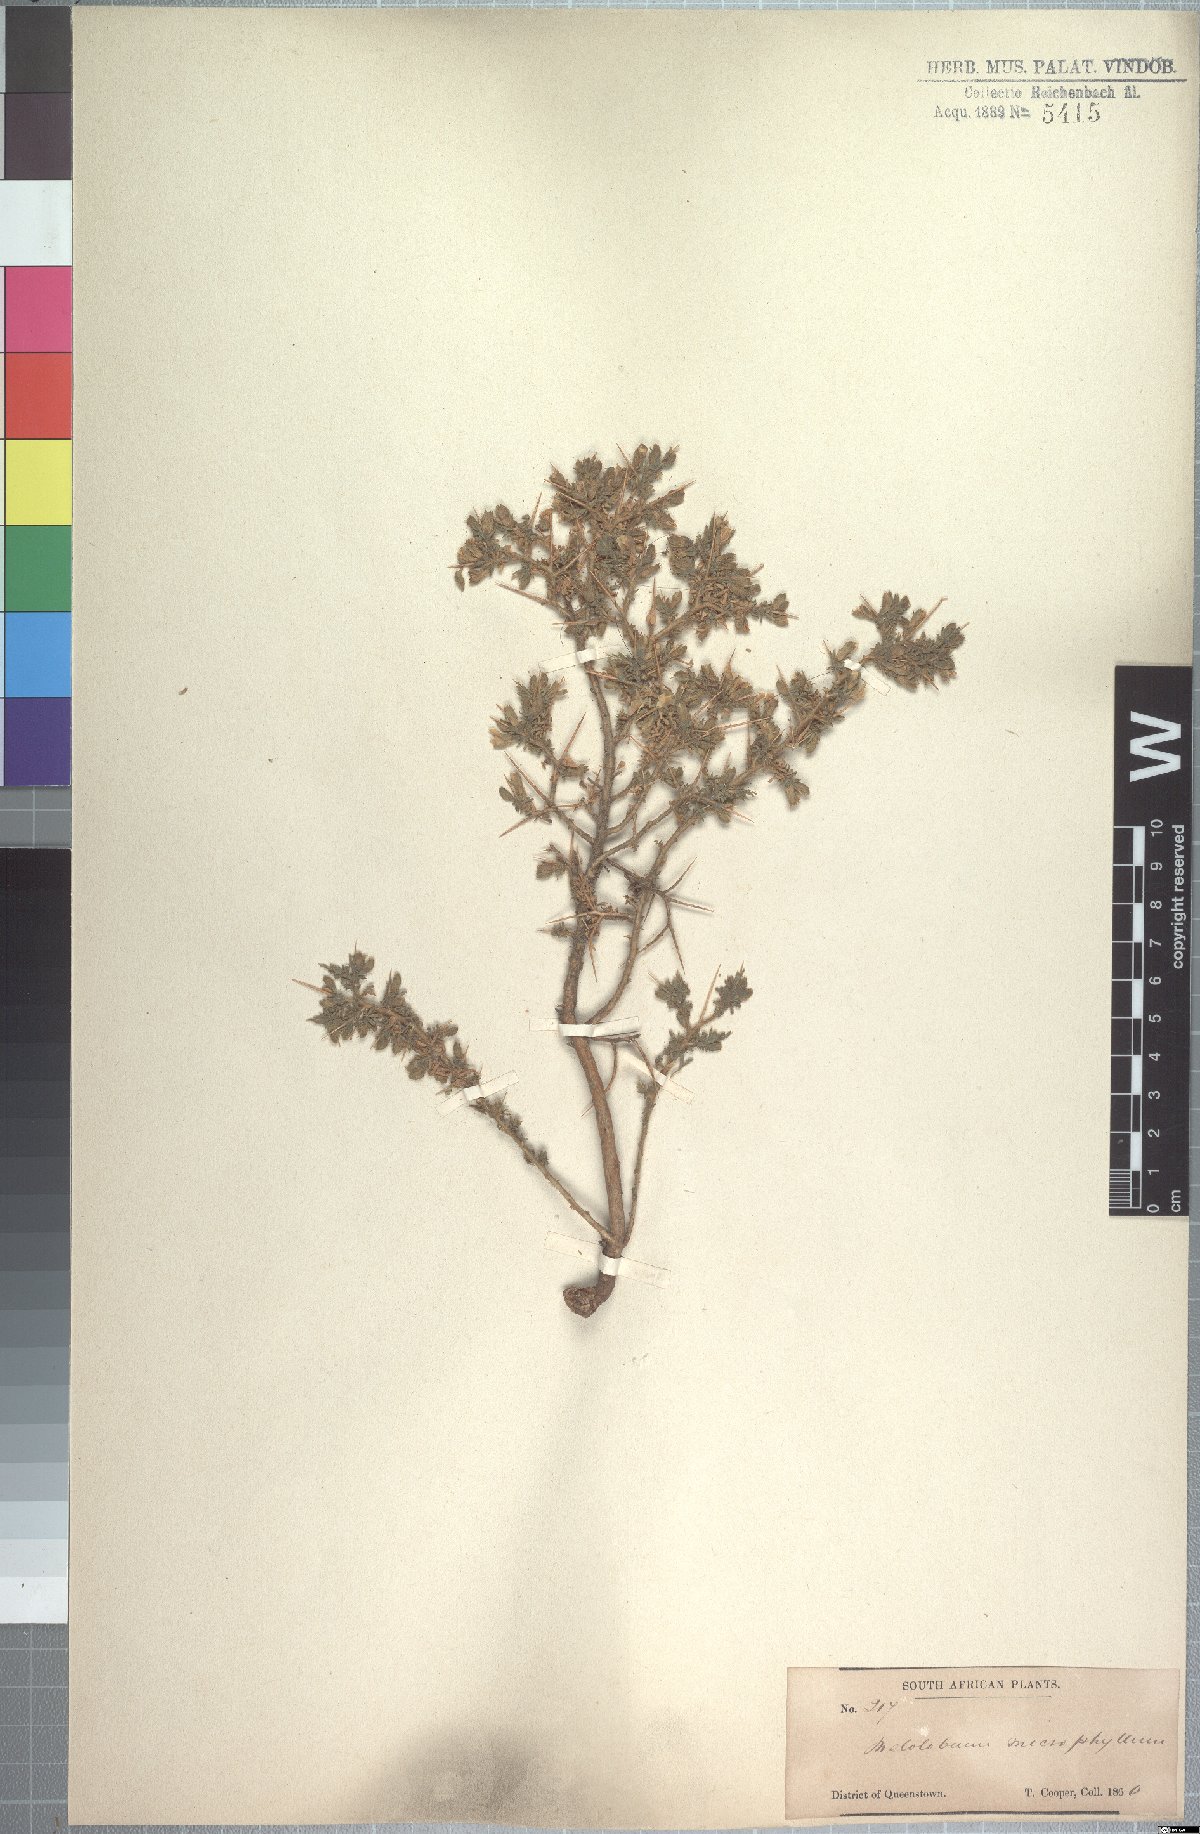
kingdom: Plantae
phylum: Tracheophyta
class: Magnoliopsida
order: Fabales
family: Fabaceae
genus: Melolobium
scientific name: Melolobium microphyllum
